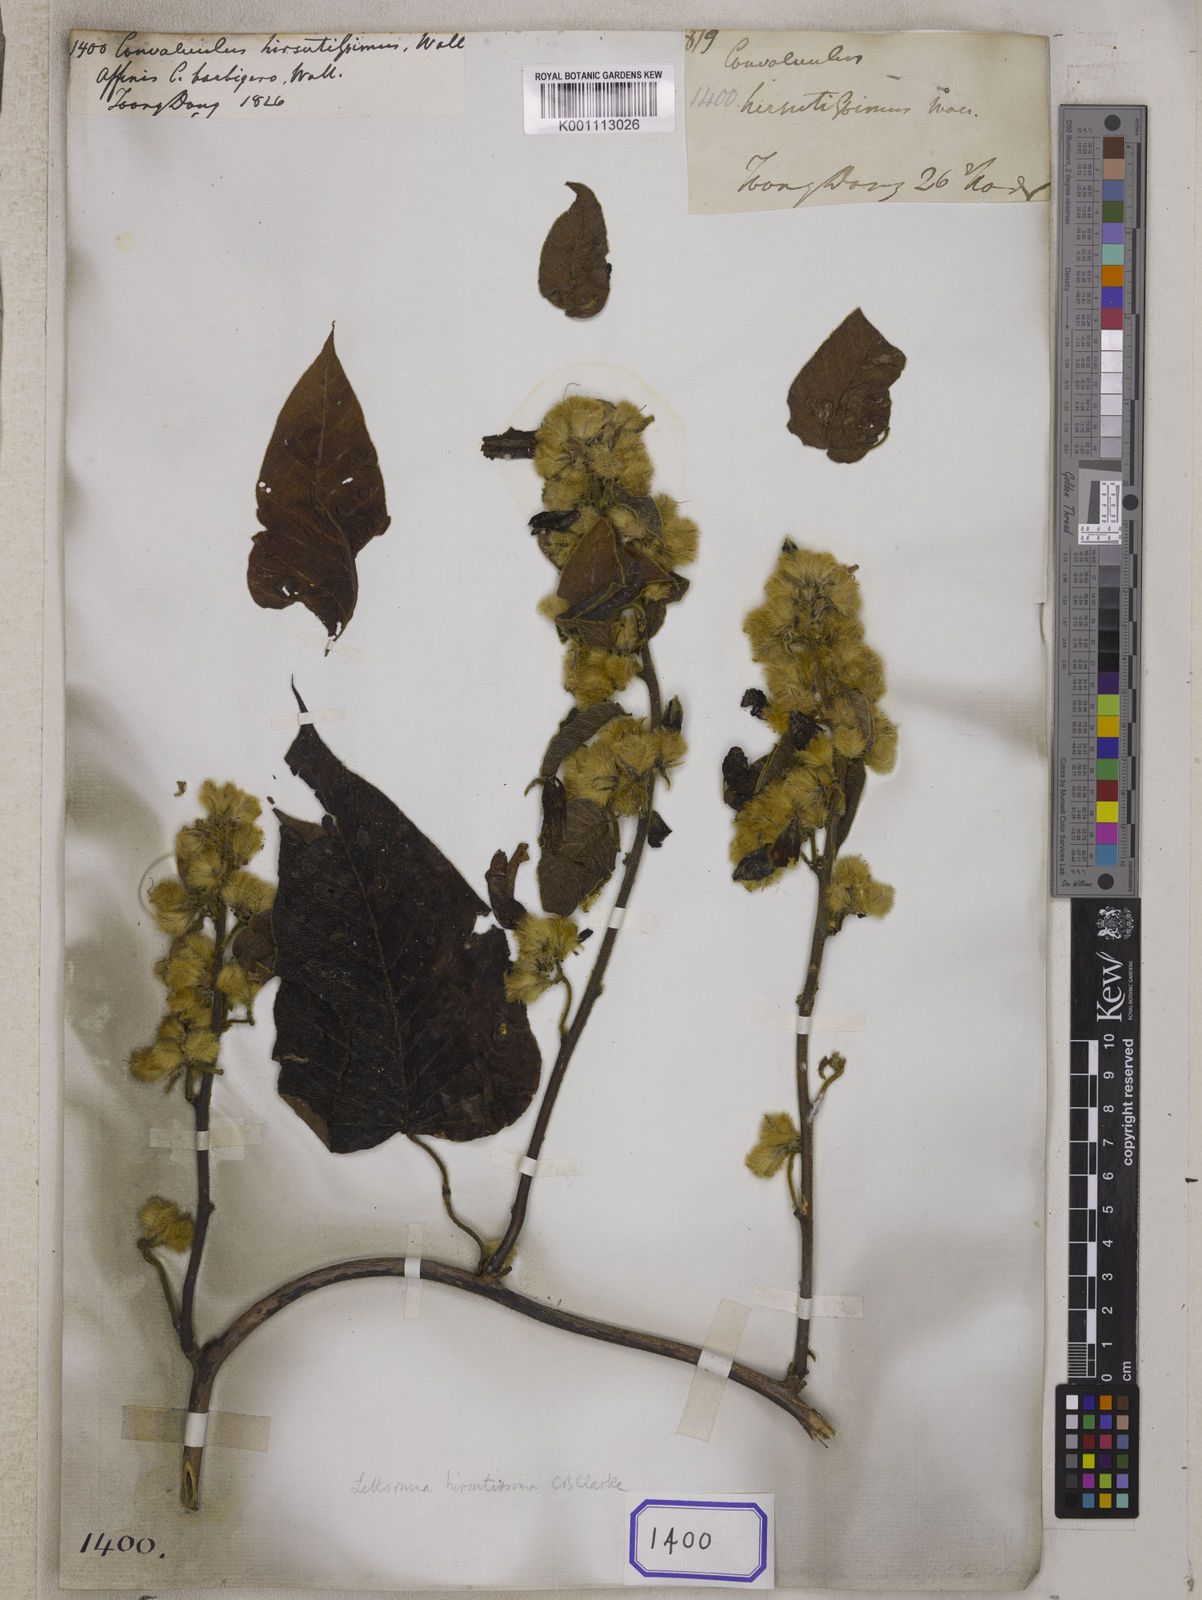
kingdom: Plantae
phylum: Tracheophyta
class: Magnoliopsida
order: Solanales
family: Convolvulaceae
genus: Argyreia
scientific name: Argyreia hirsutissima
